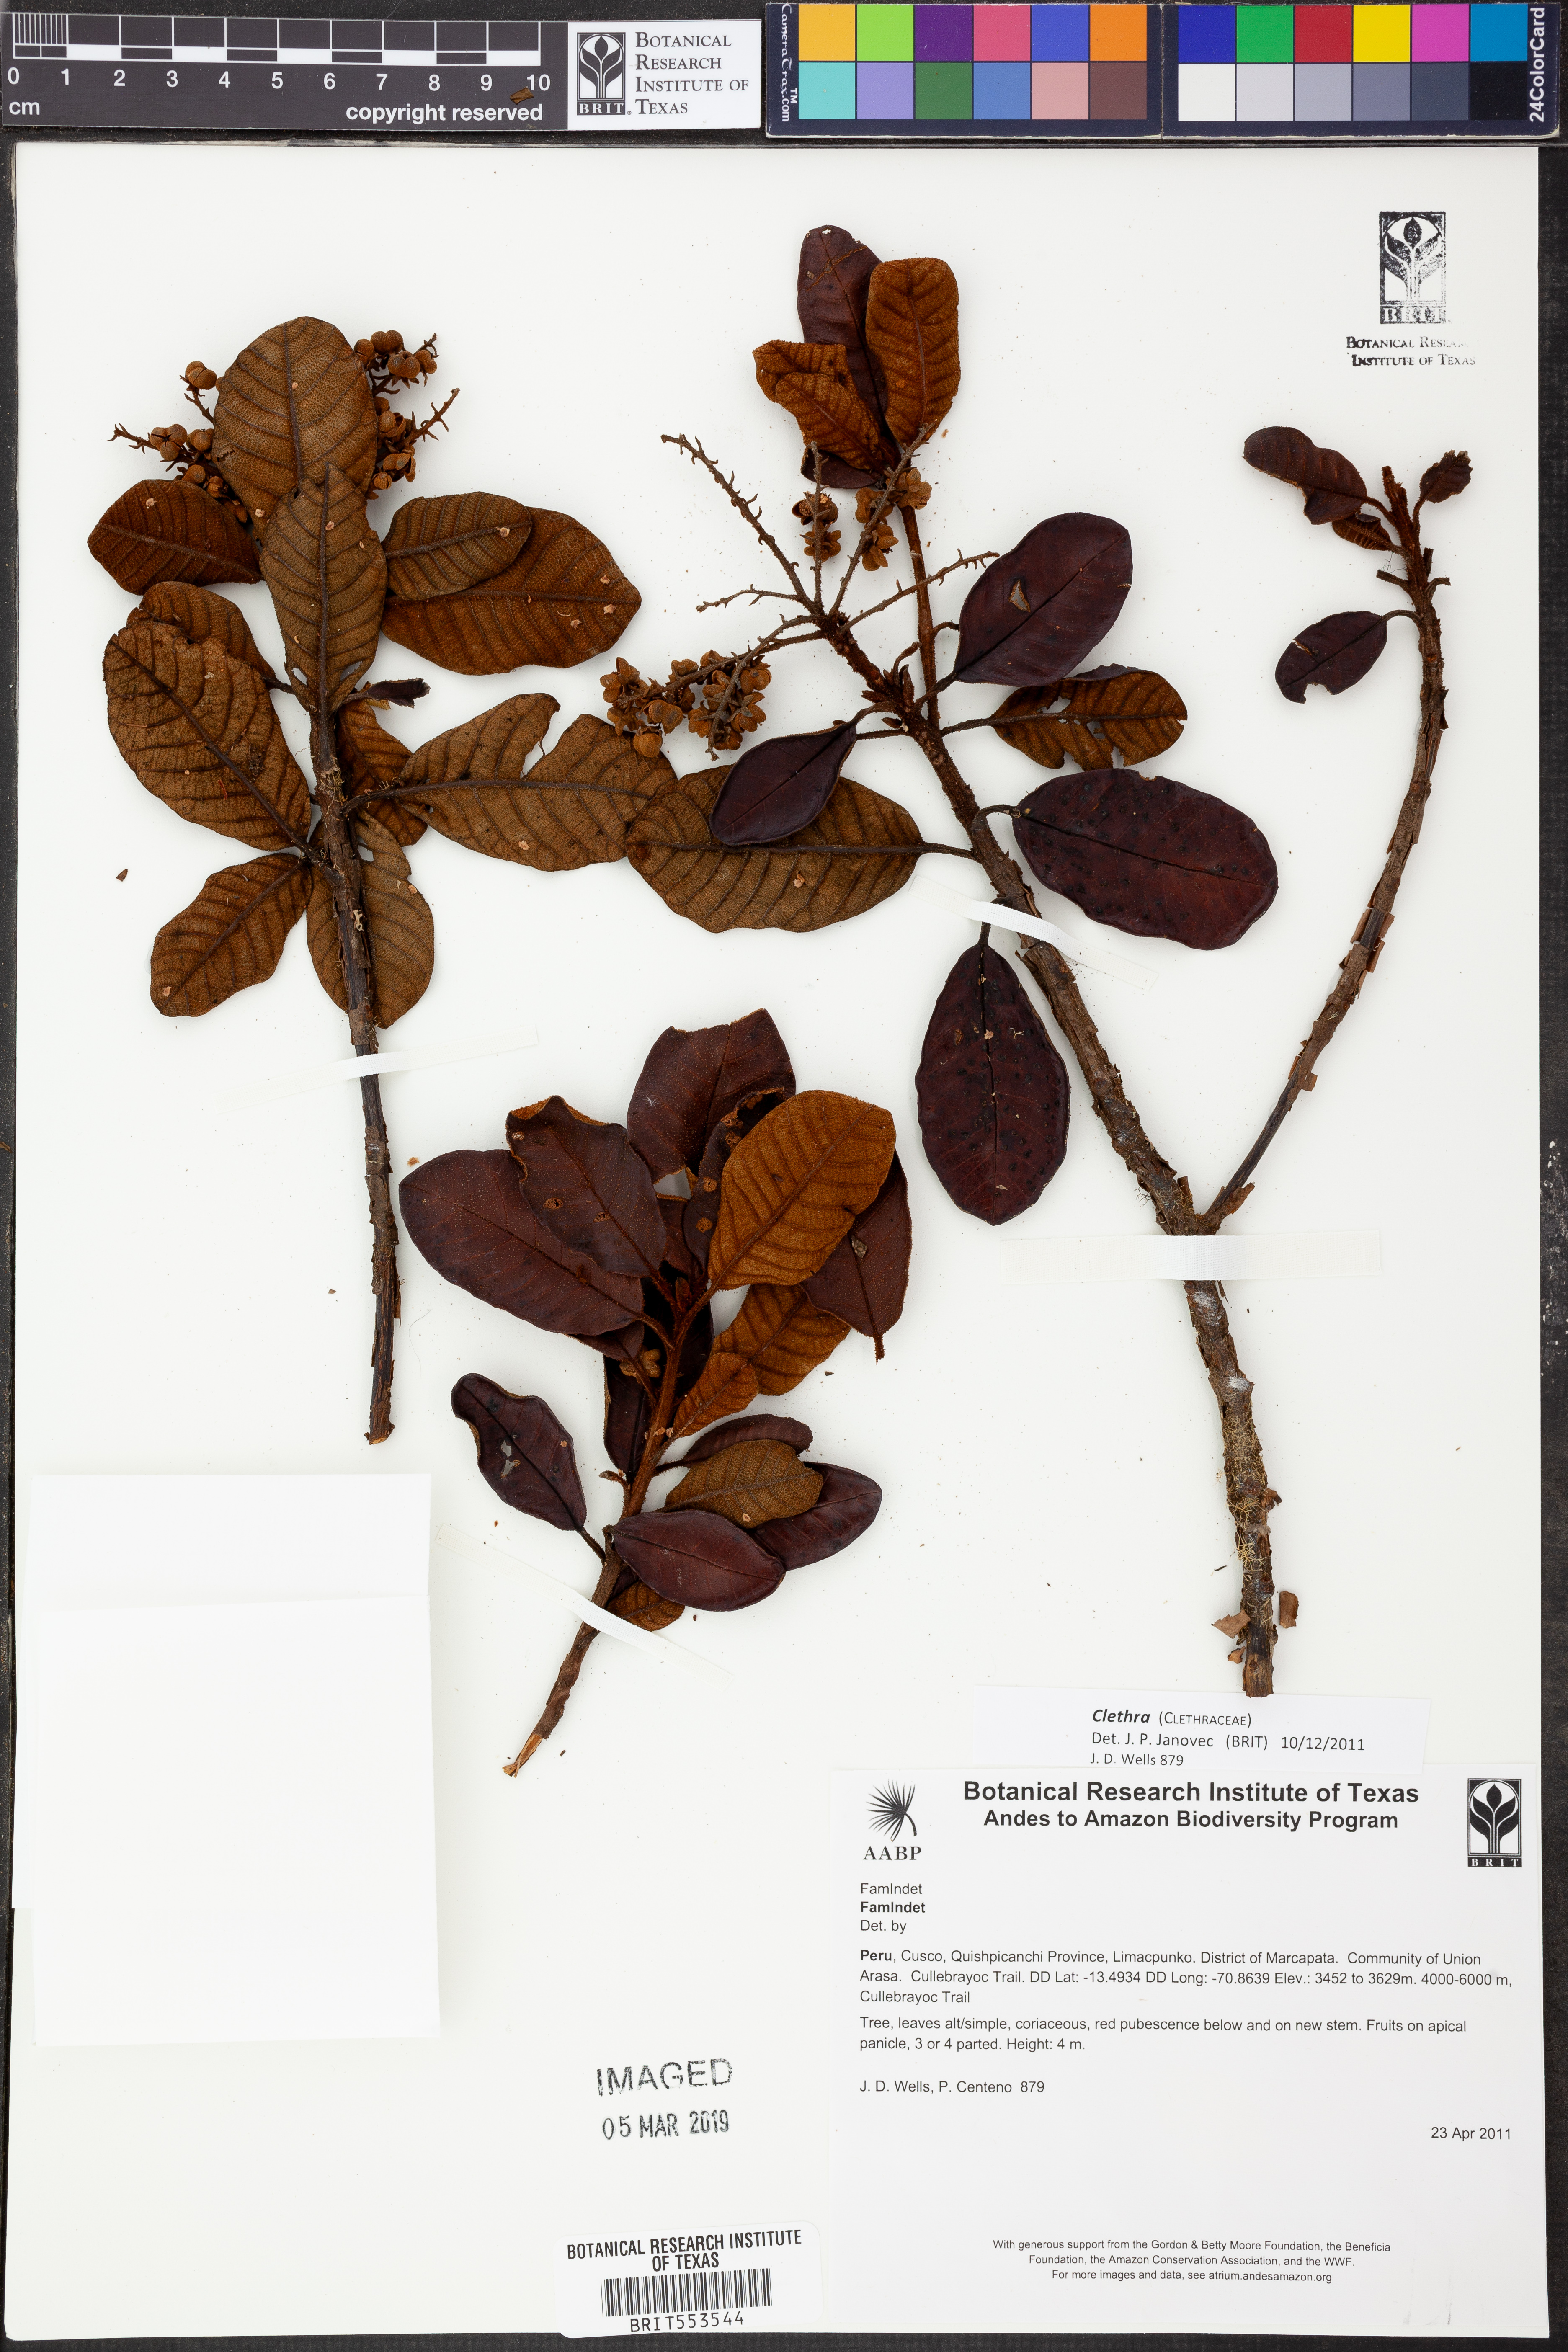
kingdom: Plantae
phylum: Tracheophyta
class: Magnoliopsida
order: Ericales
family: Clethraceae
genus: Clethra
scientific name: Clethra
